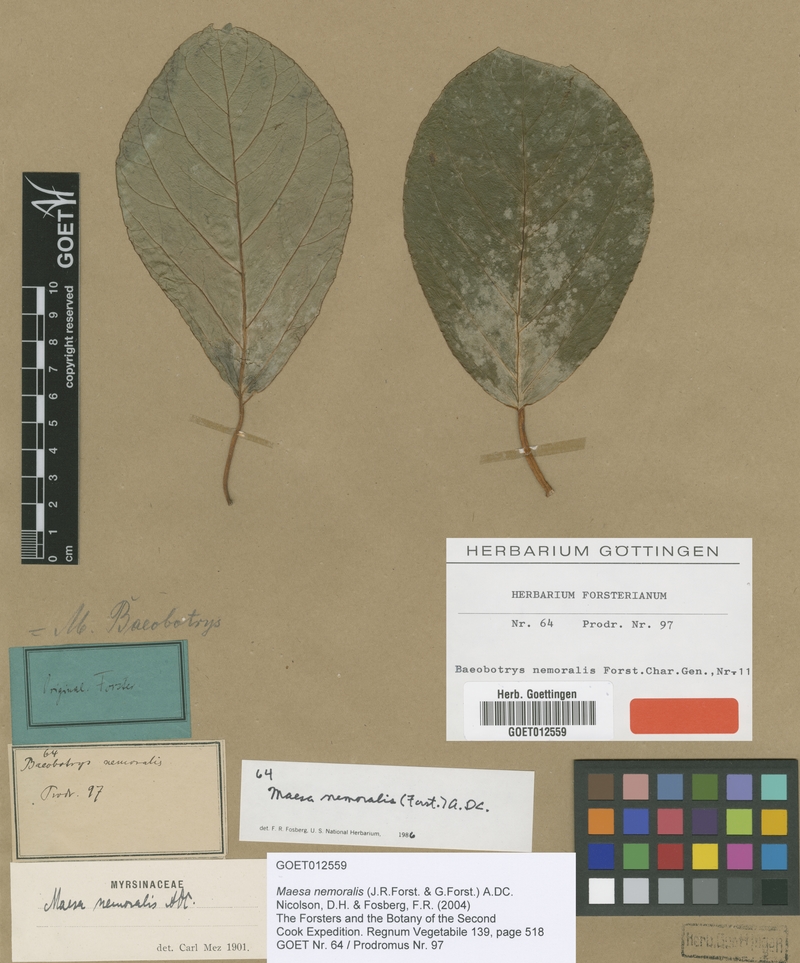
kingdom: Plantae
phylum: Tracheophyta
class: Magnoliopsida
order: Ericales
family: Primulaceae
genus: Maesa
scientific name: Maesa nemoralis
